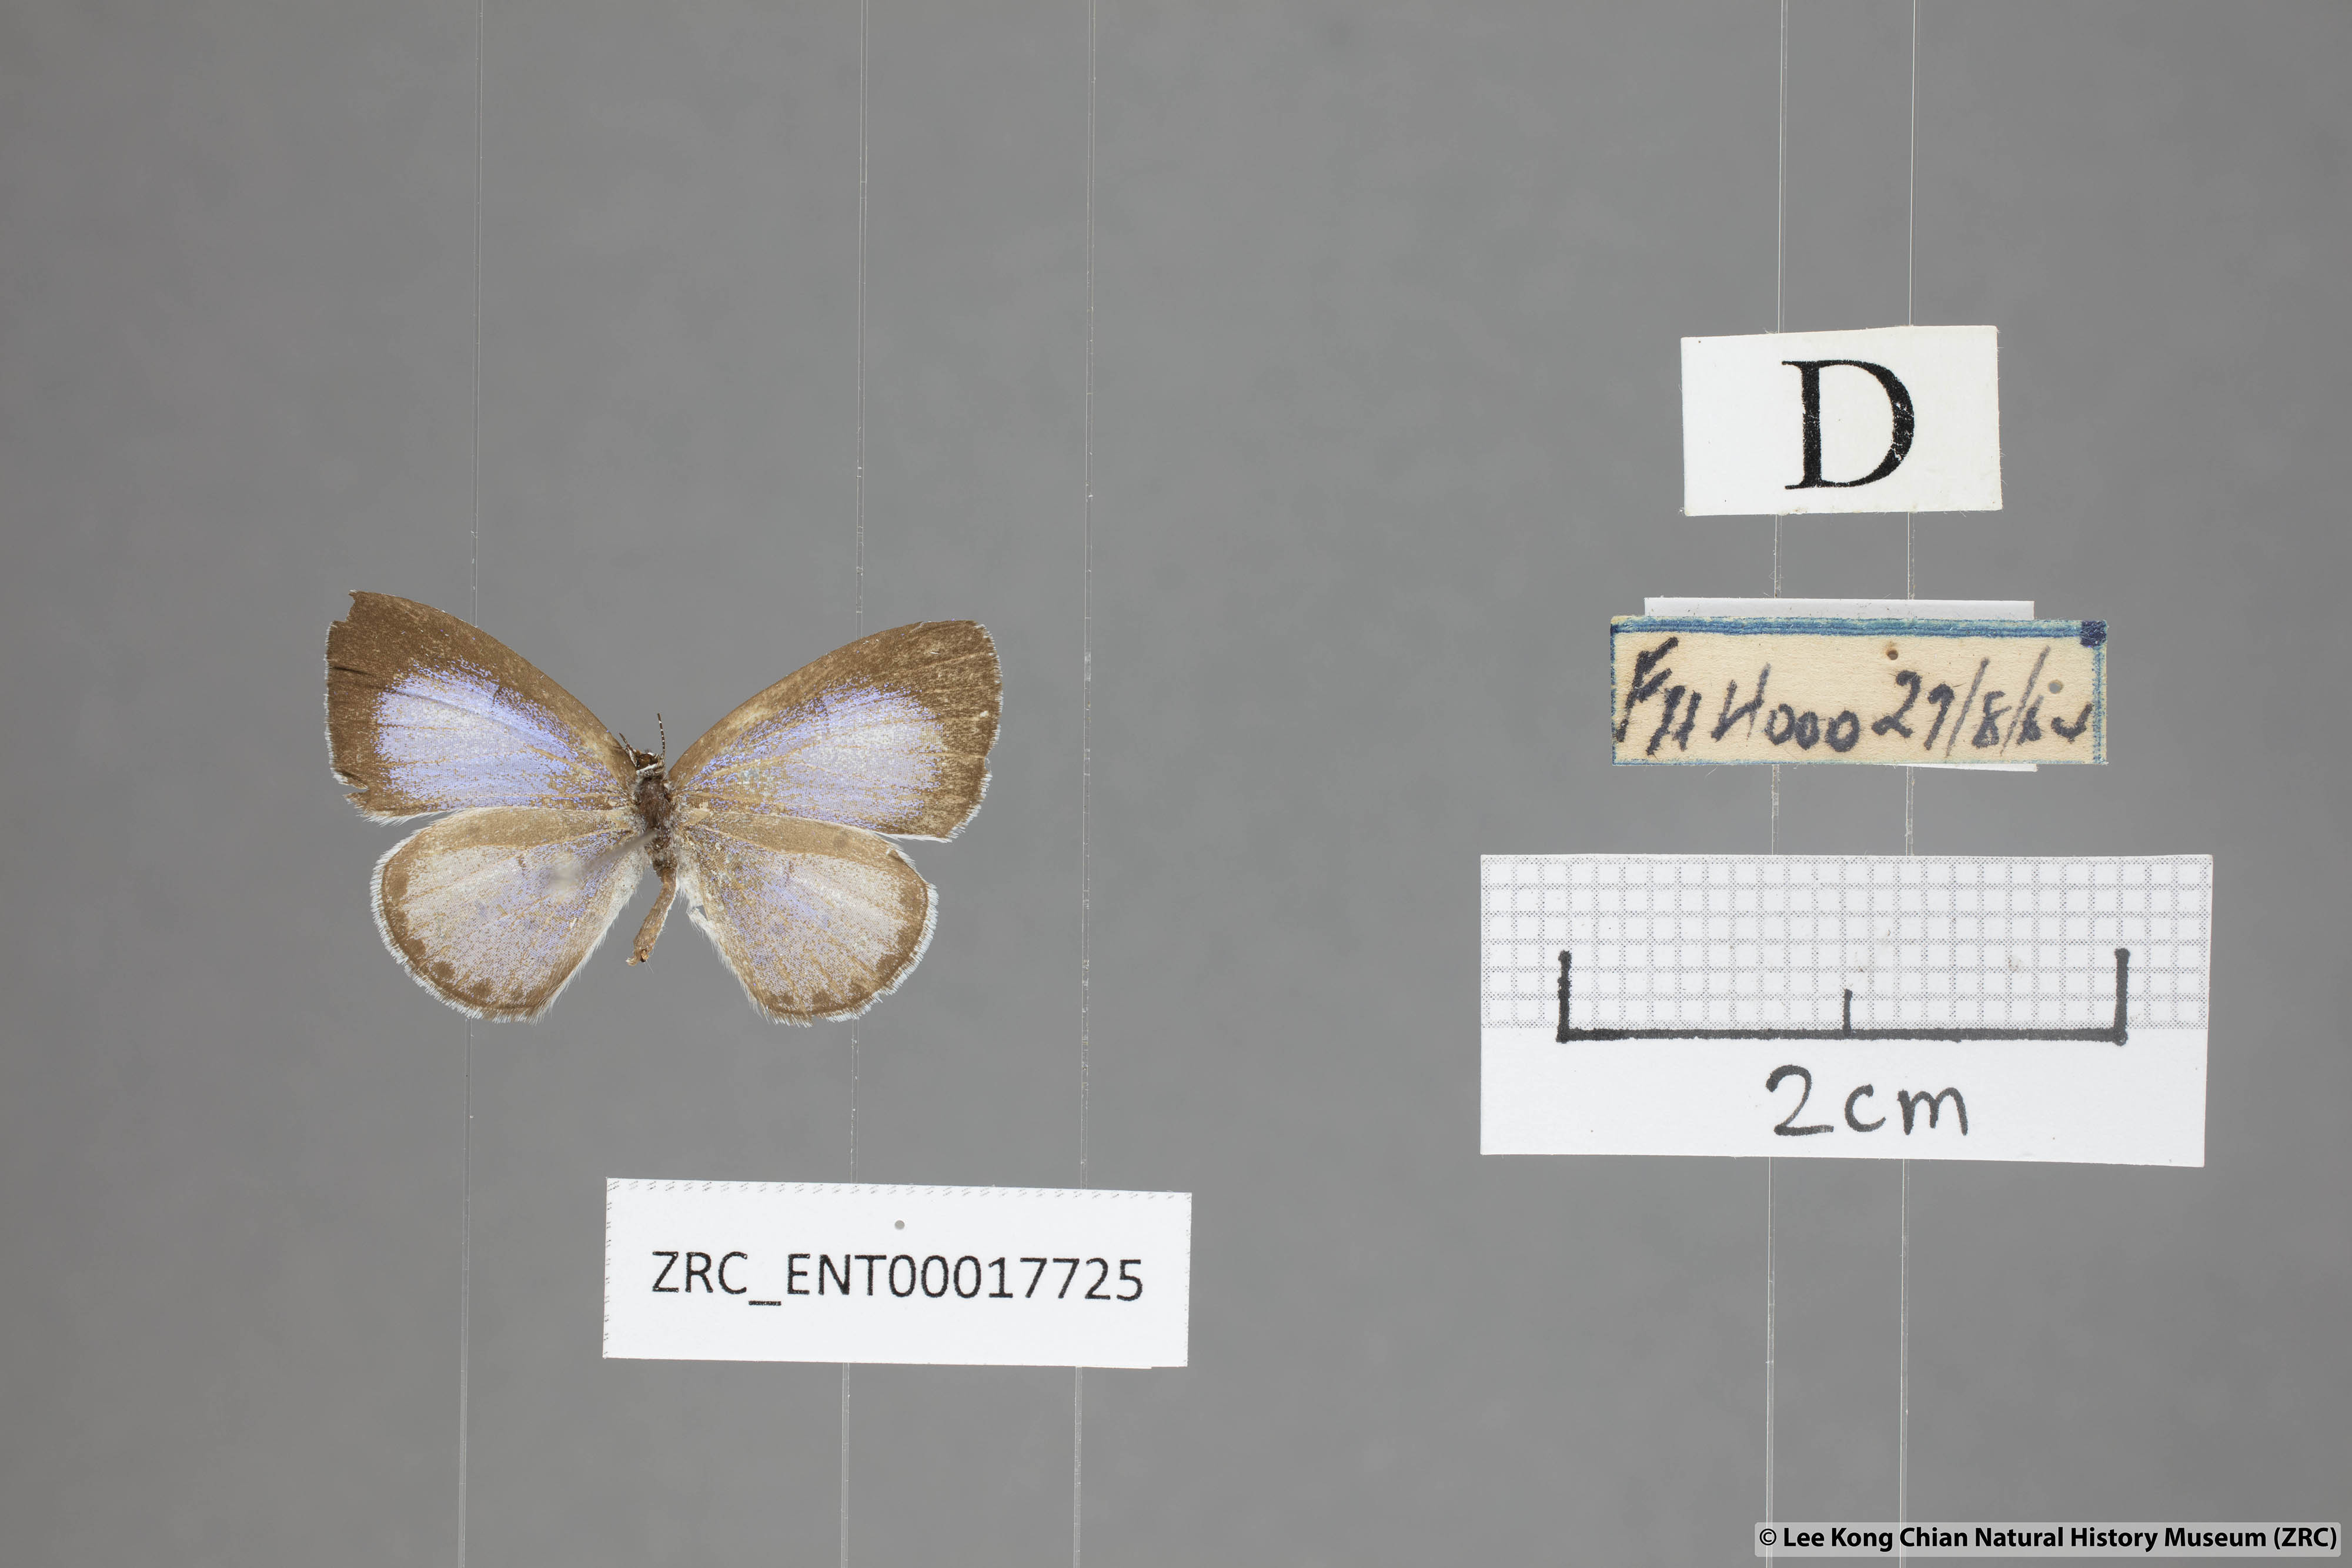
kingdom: Animalia
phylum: Arthropoda
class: Insecta
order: Lepidoptera
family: Lycaenidae
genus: Udara
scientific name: Udara
